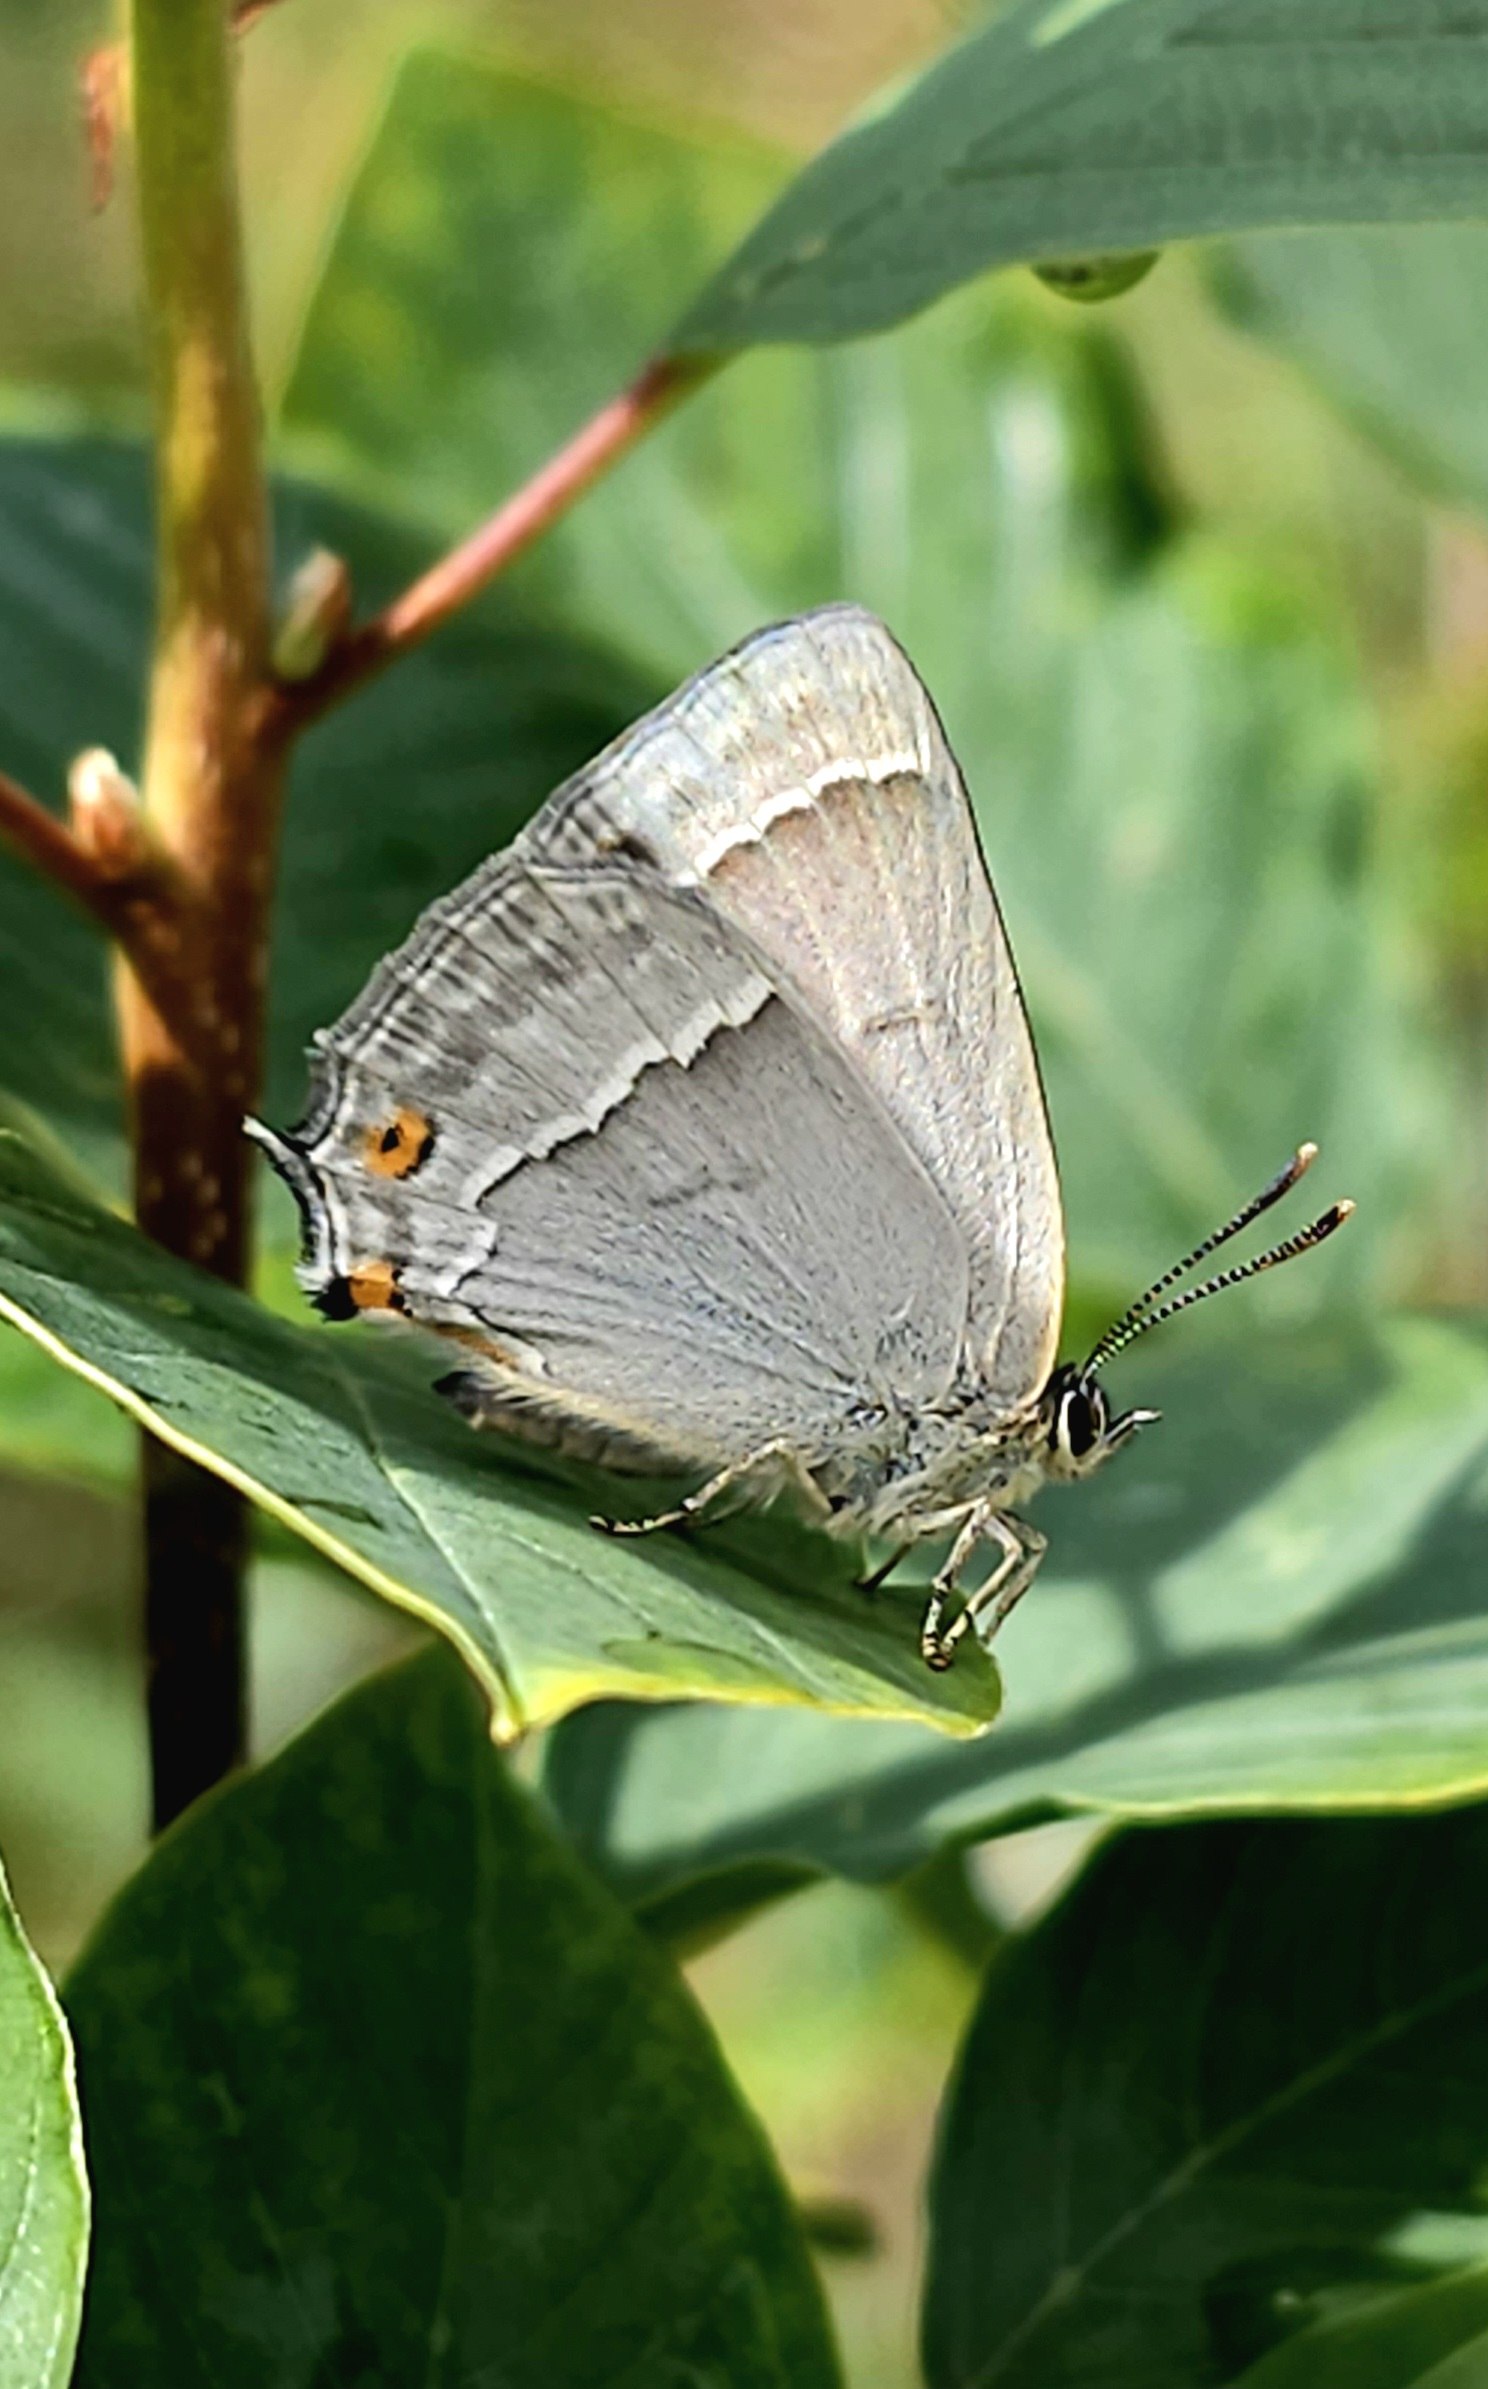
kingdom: Animalia
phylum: Arthropoda
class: Insecta
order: Lepidoptera
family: Lycaenidae
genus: Quercusia
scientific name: Quercusia quercus
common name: Blåhale
